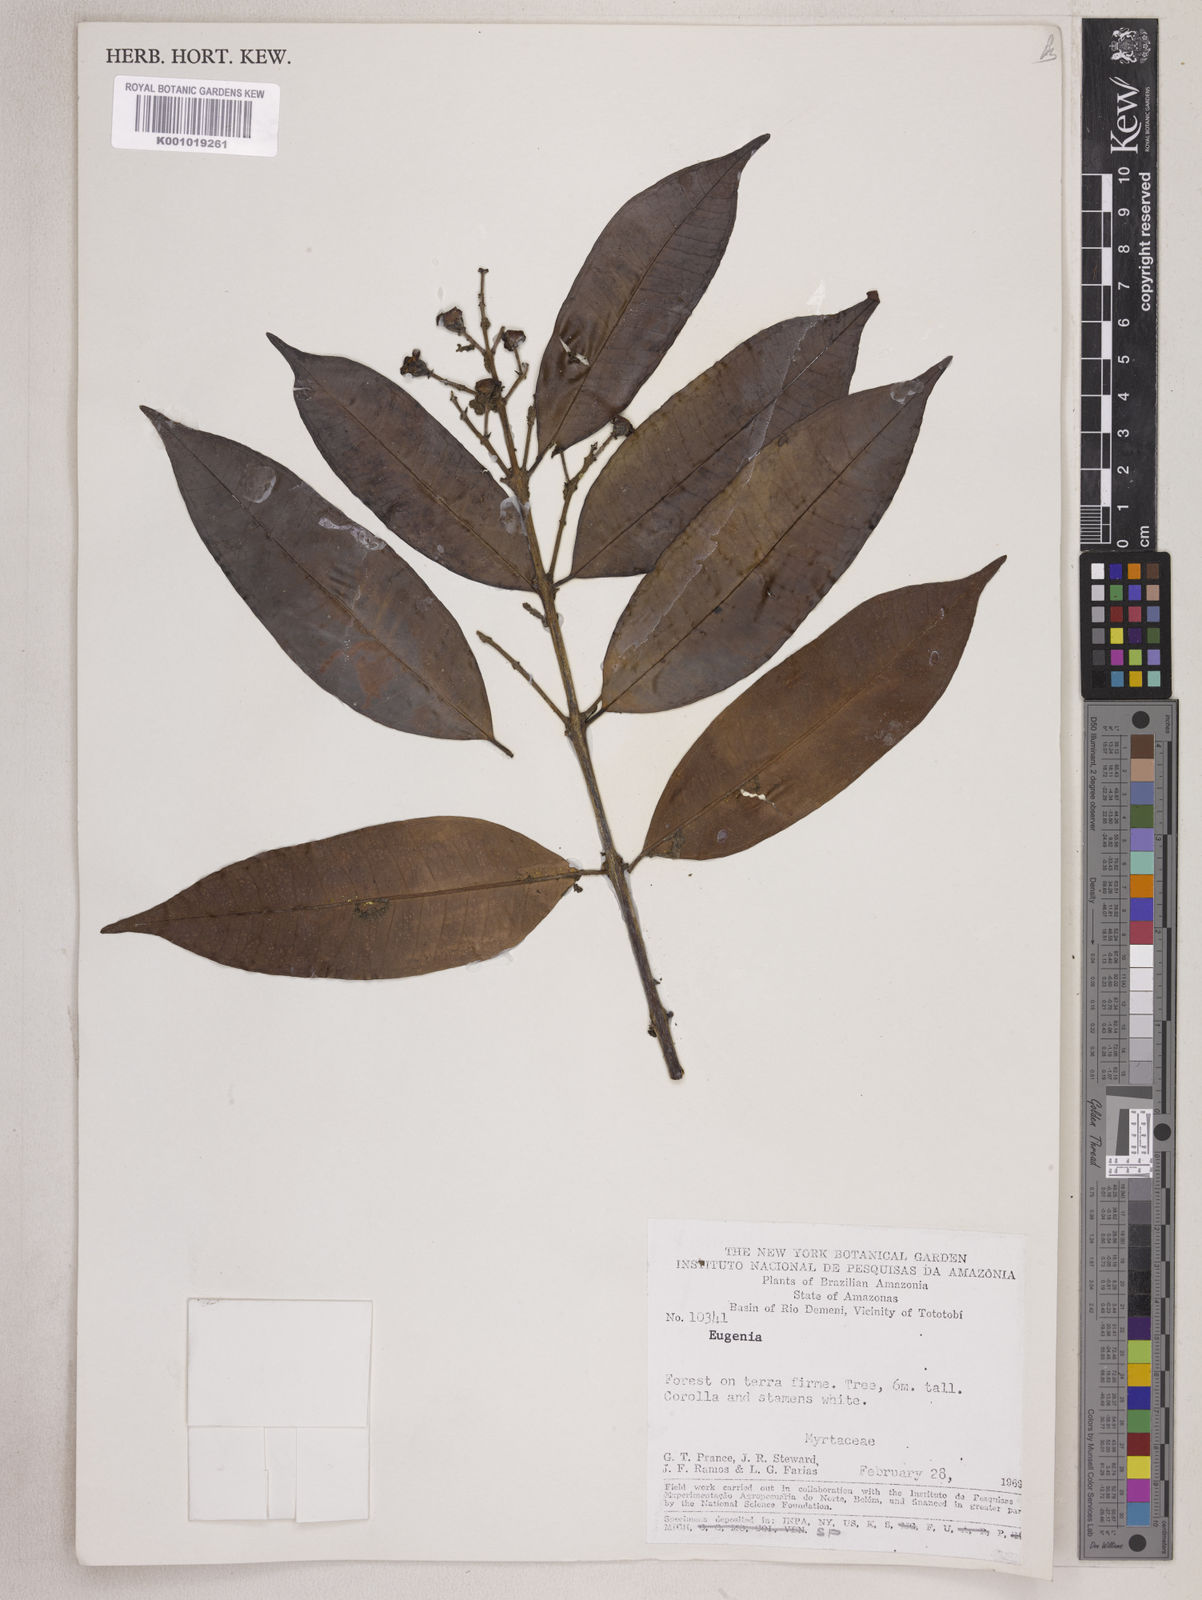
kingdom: Plantae
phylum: Tracheophyta
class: Magnoliopsida
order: Myrtales
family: Myrtaceae
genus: Eugenia
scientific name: Eugenia patens
